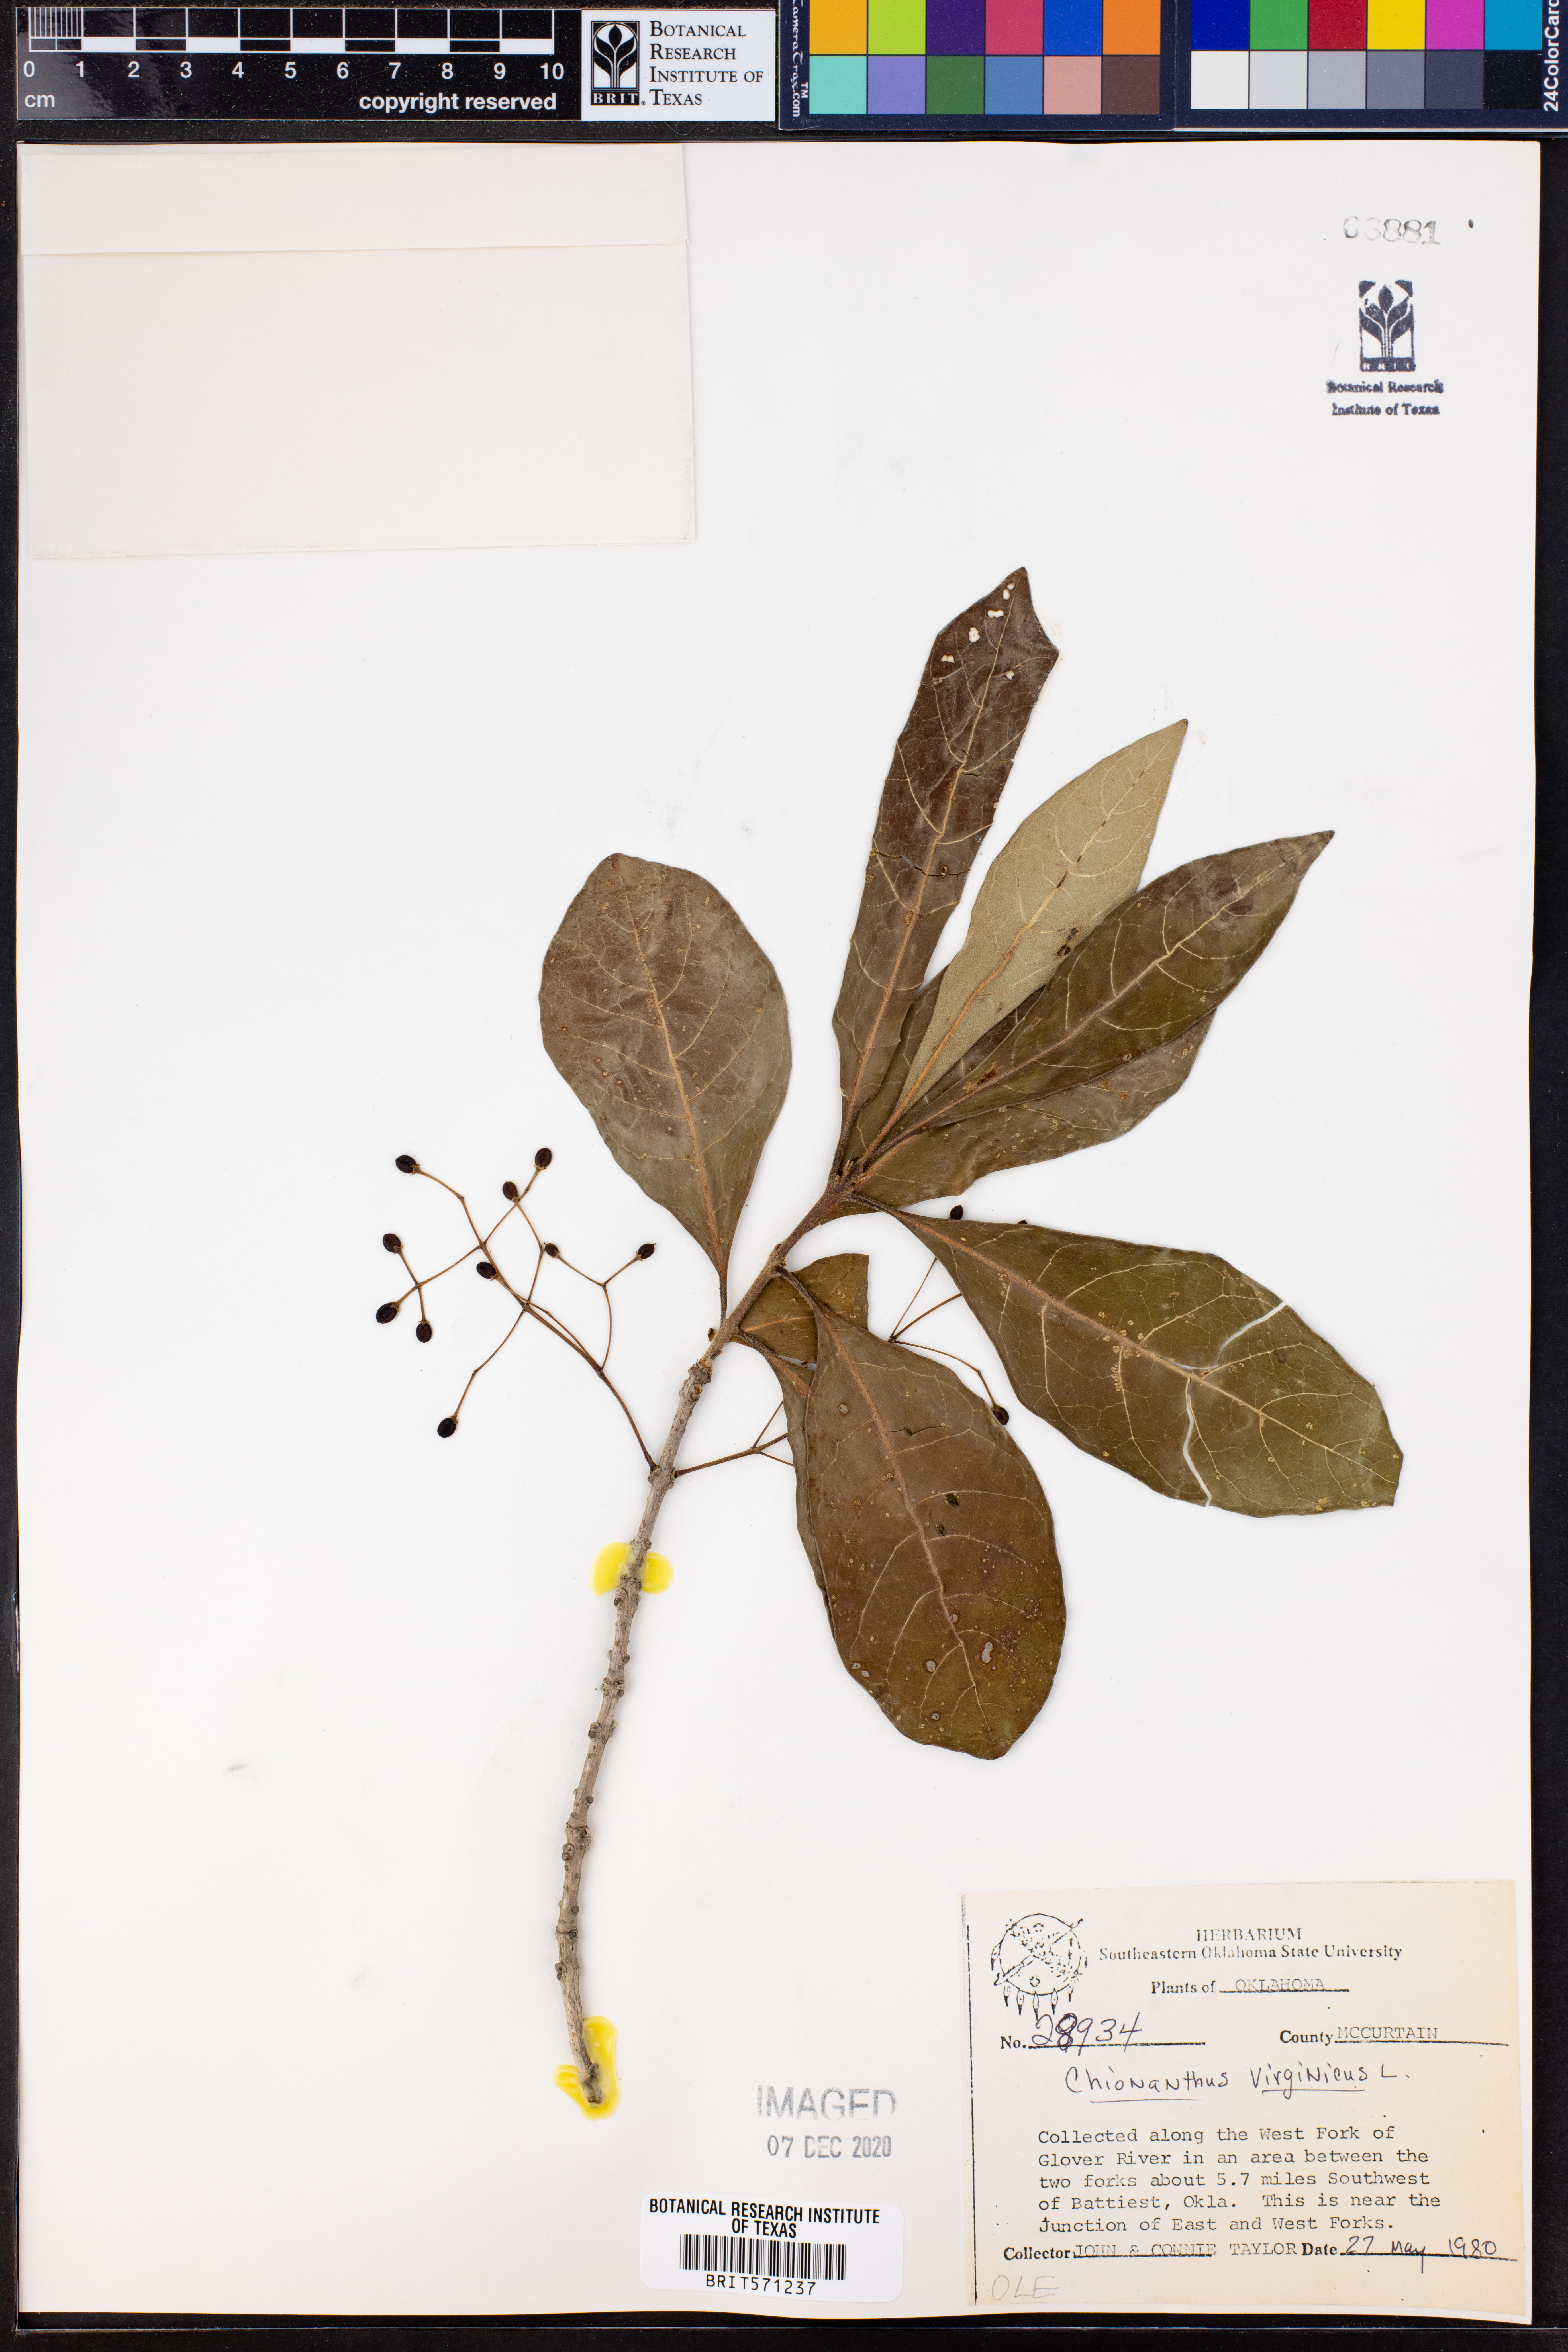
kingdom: Plantae
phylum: Tracheophyta
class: Magnoliopsida
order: Lamiales
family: Oleaceae
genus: Chionanthus
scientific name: Chionanthus virginicus
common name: American fringetree
